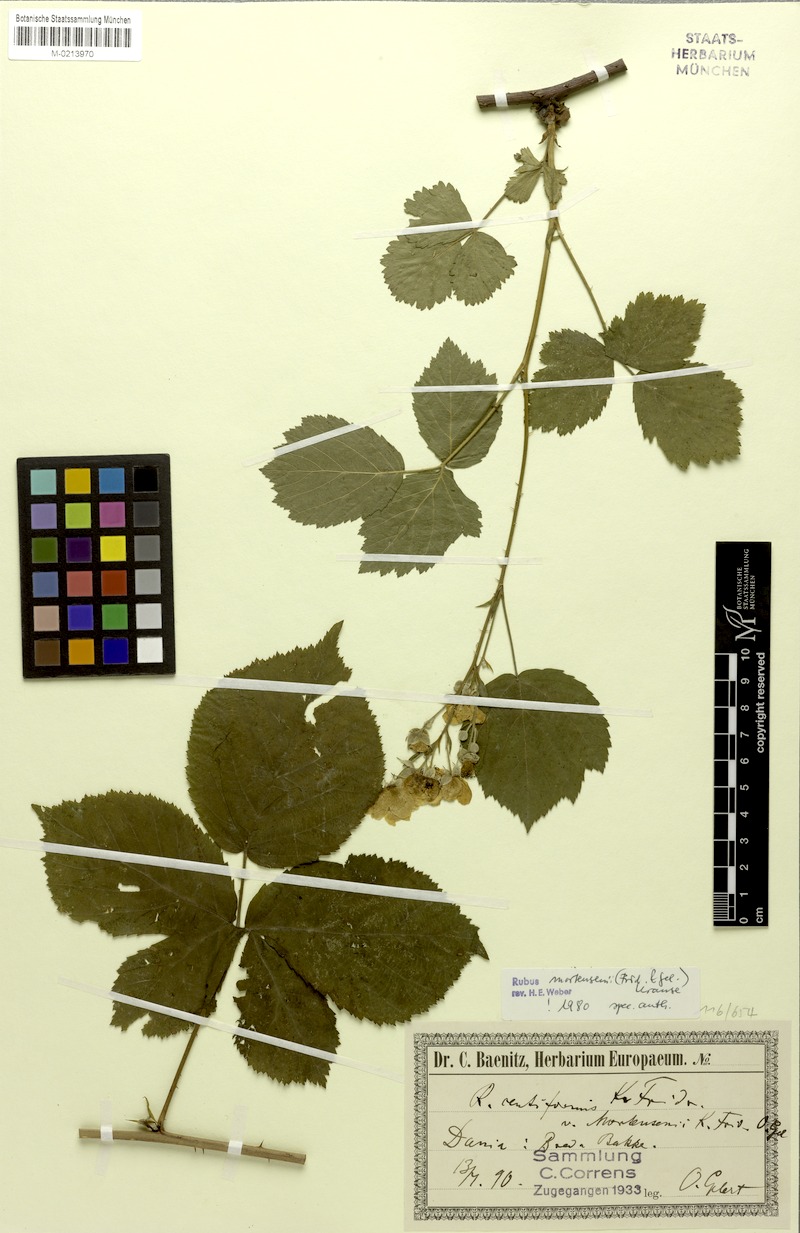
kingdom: Plantae
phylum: Tracheophyta
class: Magnoliopsida
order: Rosales
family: Rosaceae
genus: Rubus
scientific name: Rubus mortensenii
